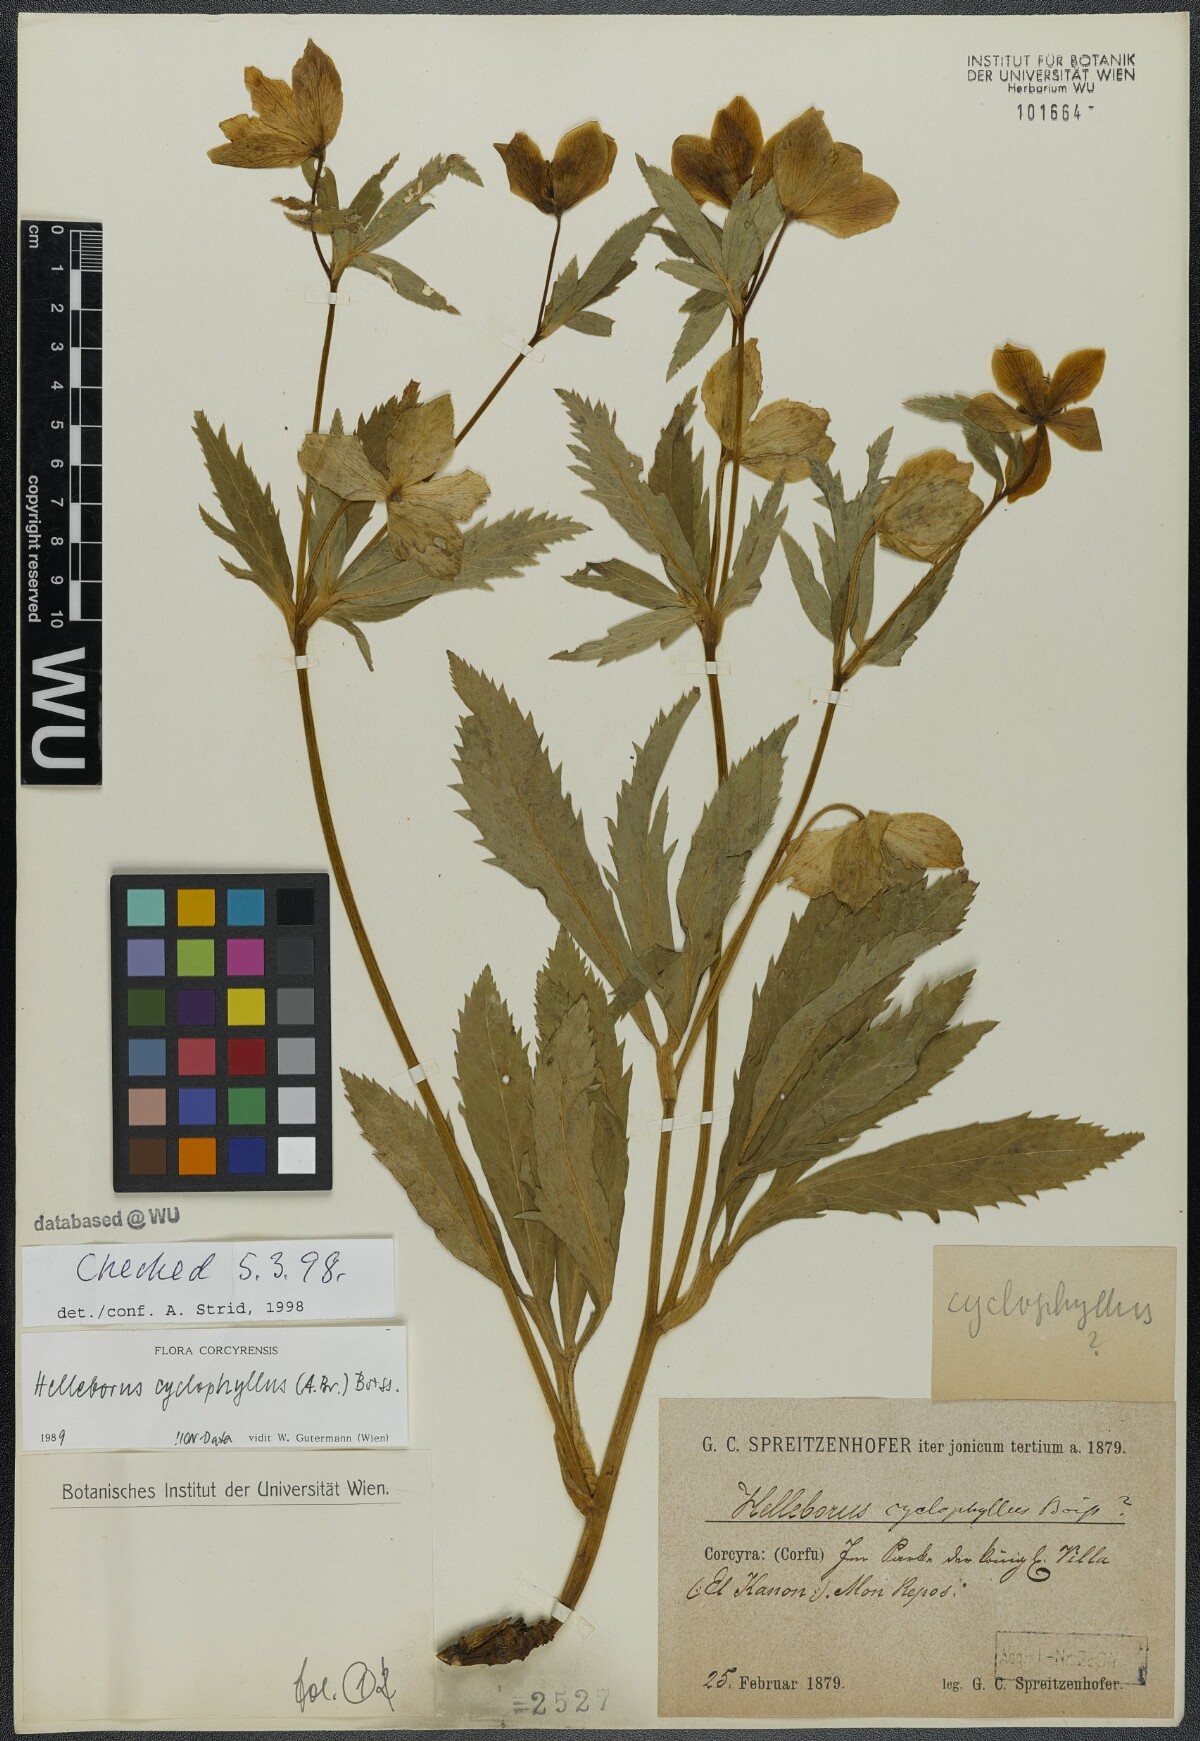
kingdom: Plantae
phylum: Tracheophyta
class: Magnoliopsida
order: Ranunculales
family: Ranunculaceae
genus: Helleborus
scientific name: Helleborus odorus
